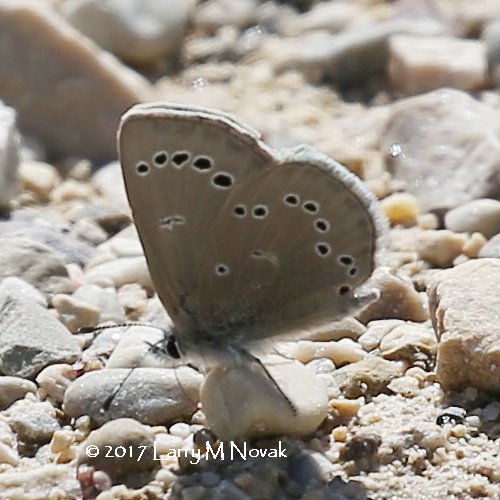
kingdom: Animalia
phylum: Arthropoda
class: Insecta
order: Lepidoptera
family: Lycaenidae
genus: Glaucopsyche
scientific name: Glaucopsyche lygdamus
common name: Silvery Blue
